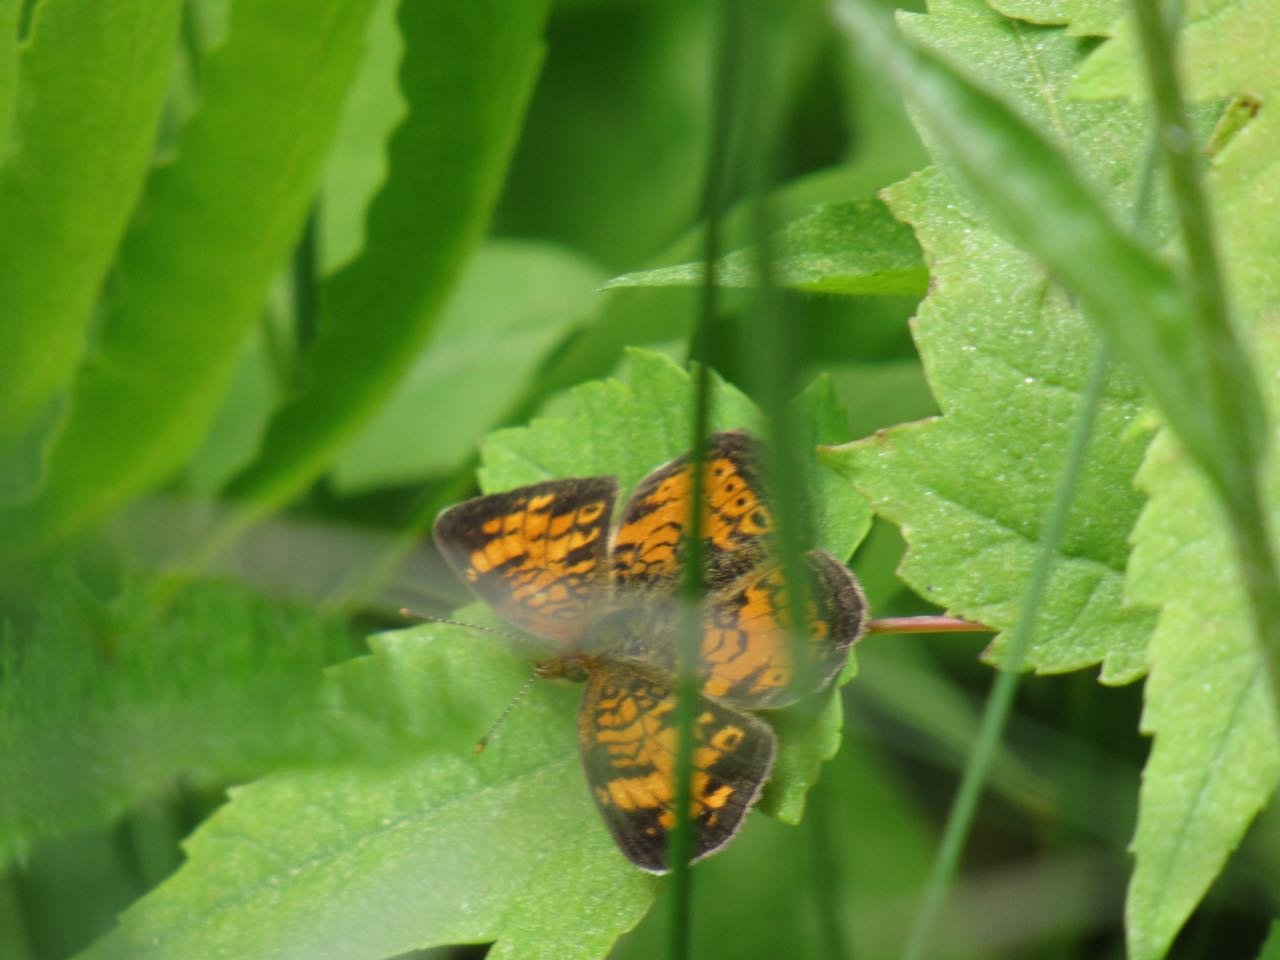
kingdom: Animalia
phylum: Arthropoda
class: Insecta
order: Lepidoptera
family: Nymphalidae
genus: Phyciodes
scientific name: Phyciodes tharos
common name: Pearl Crescent
